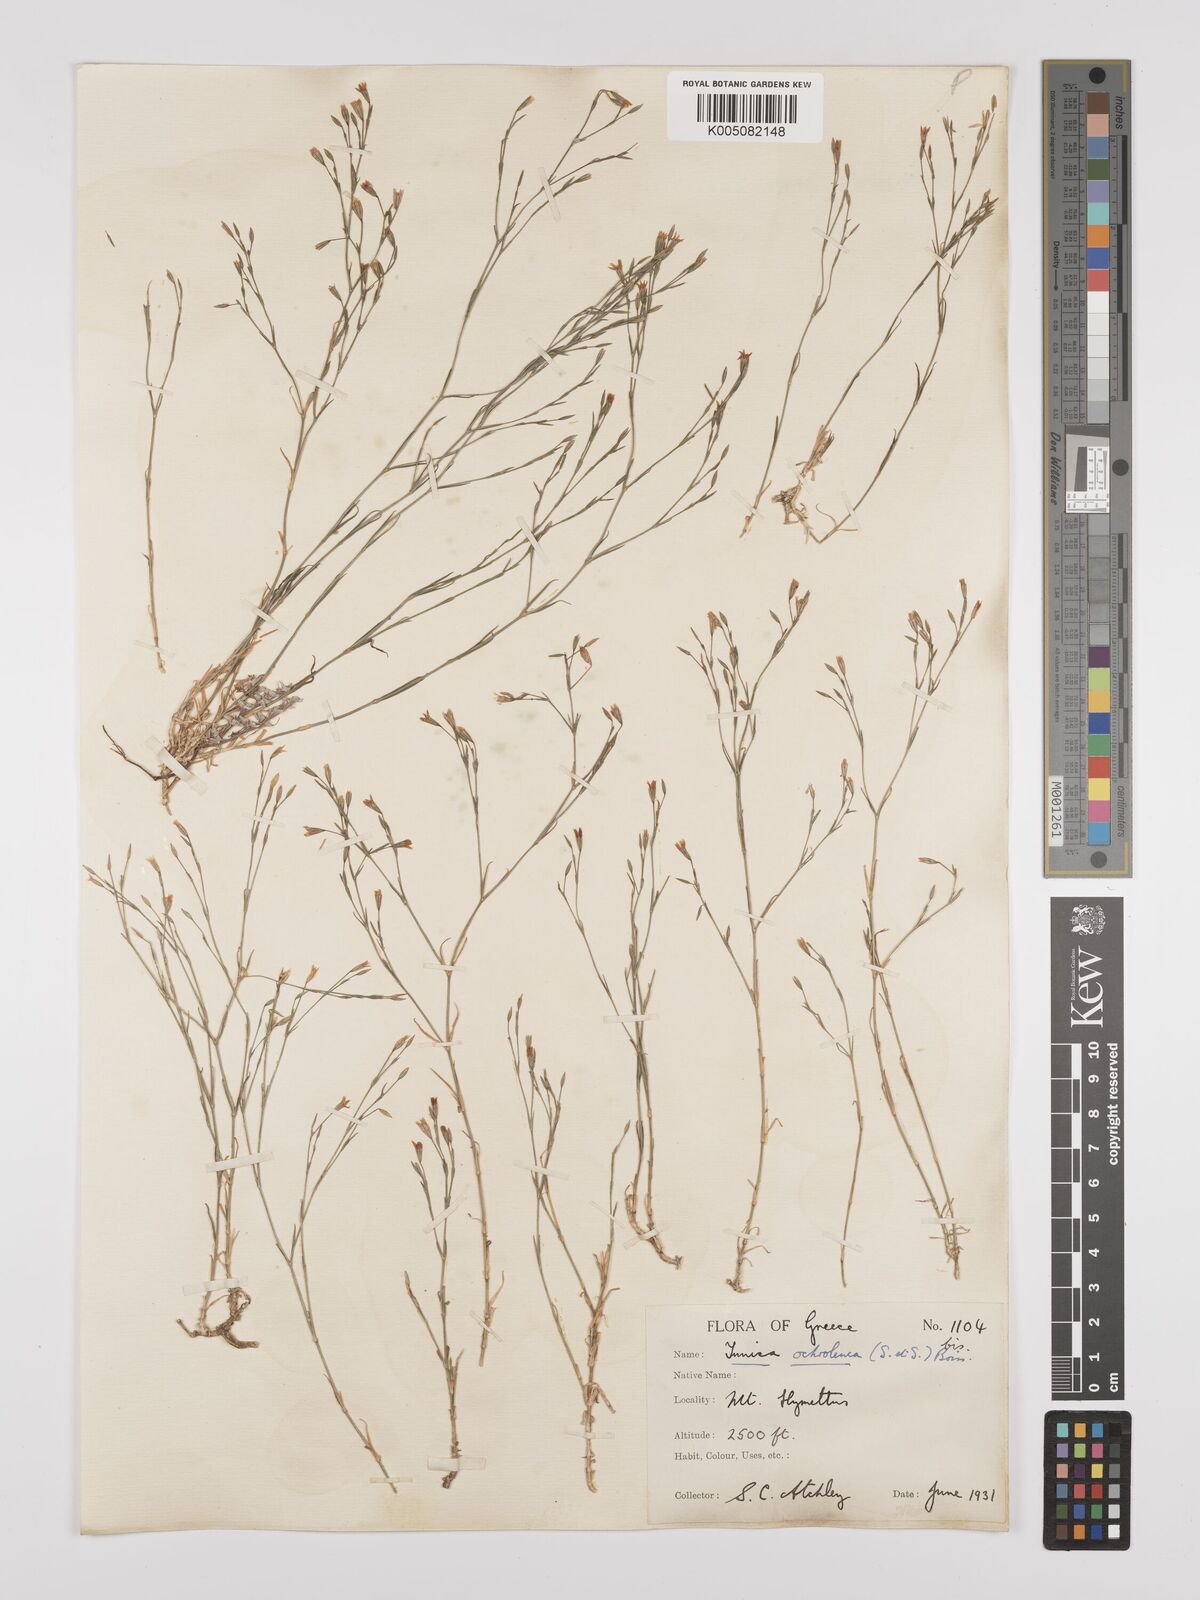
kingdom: Plantae
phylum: Tracheophyta
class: Magnoliopsida
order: Caryophyllales
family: Caryophyllaceae
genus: Petrorhagia
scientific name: Petrorhagia ochroleuca
